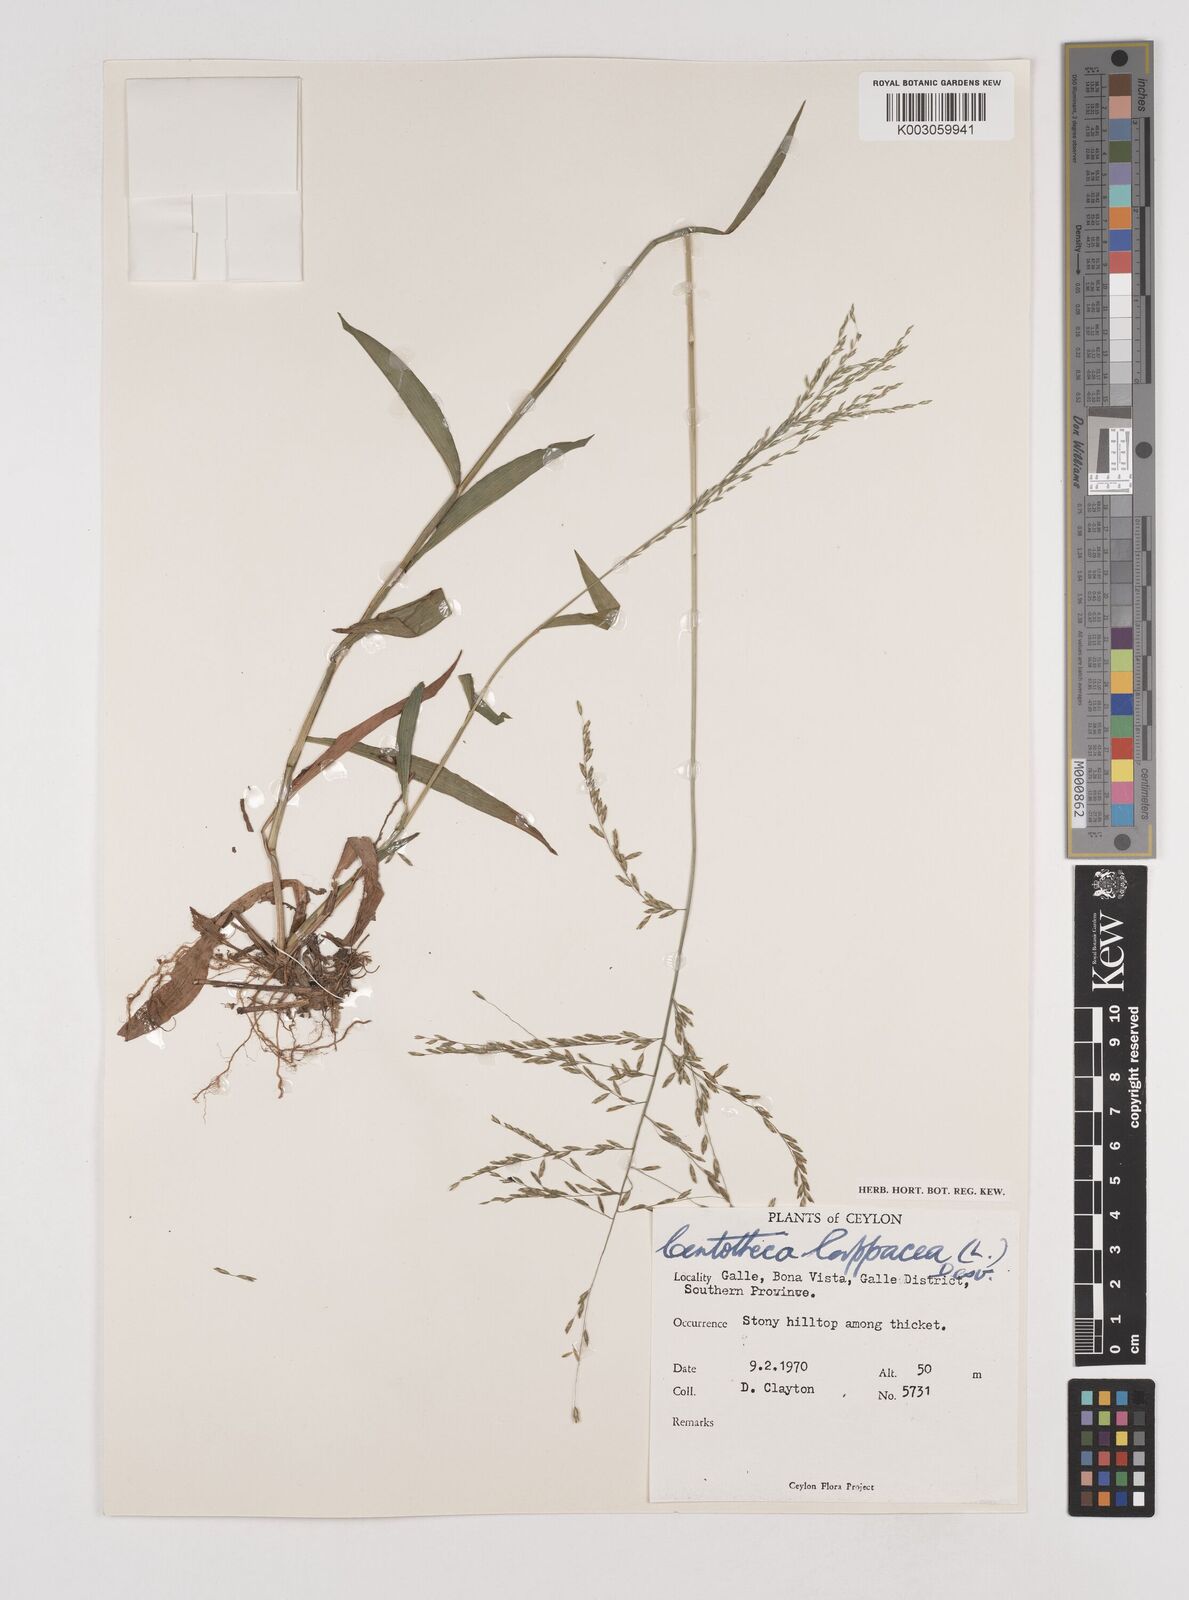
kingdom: Plantae
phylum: Tracheophyta
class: Liliopsida
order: Poales
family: Poaceae
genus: Centotheca
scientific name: Centotheca lappacea
